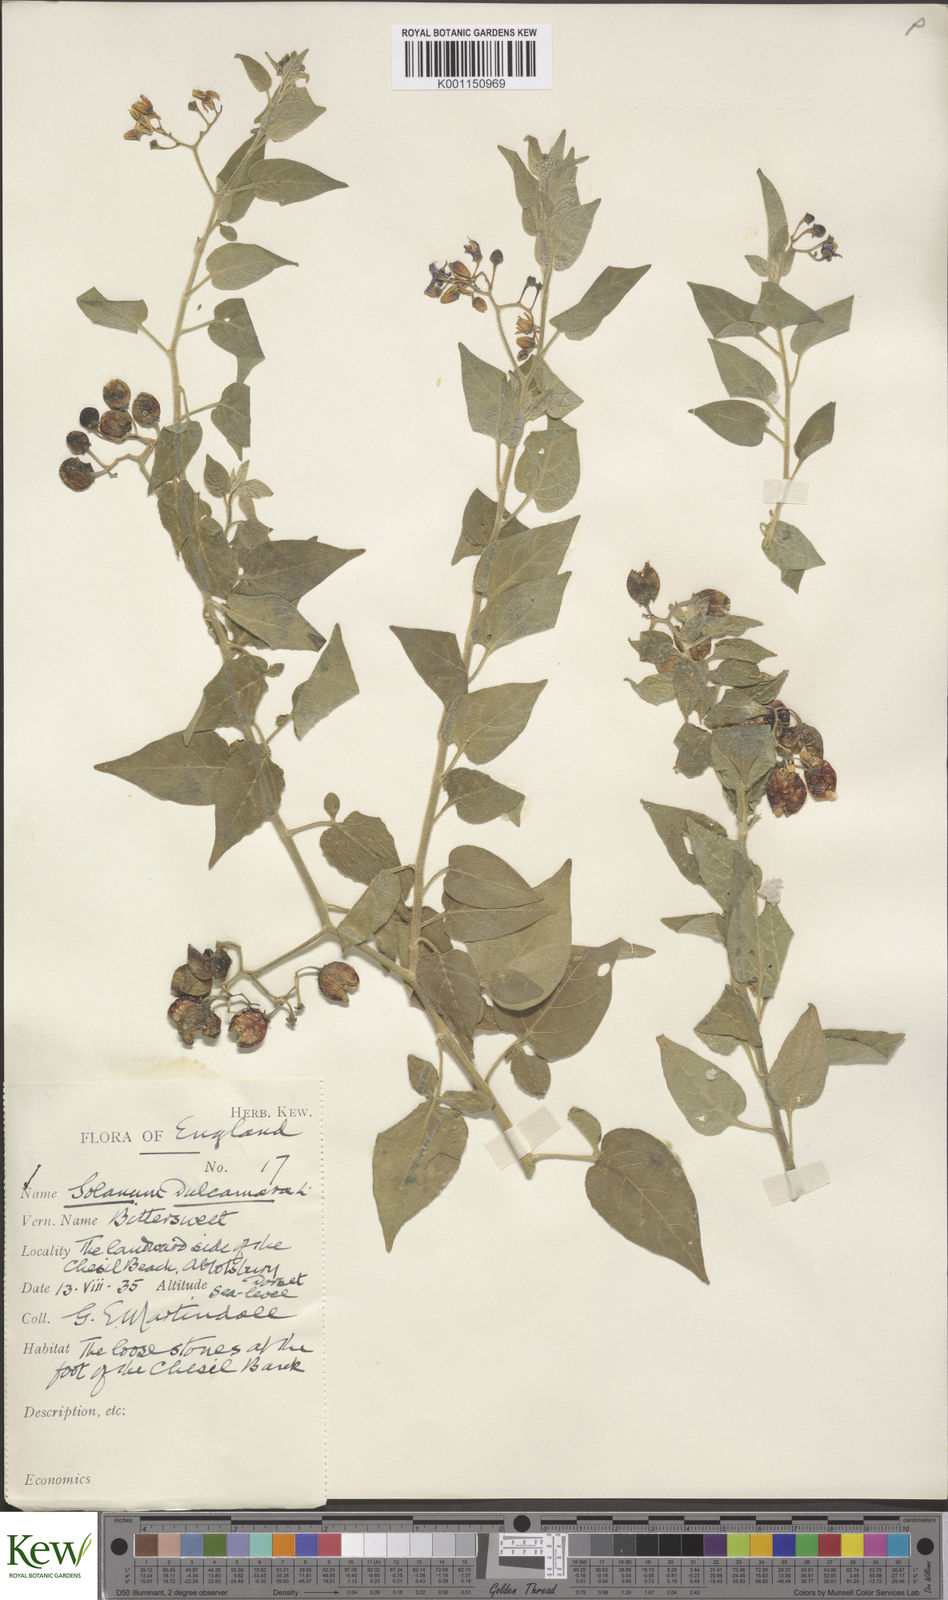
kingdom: Plantae
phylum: Tracheophyta
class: Magnoliopsida
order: Solanales
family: Solanaceae
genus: Solanum
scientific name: Solanum dulcamara
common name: Climbing nightshade
